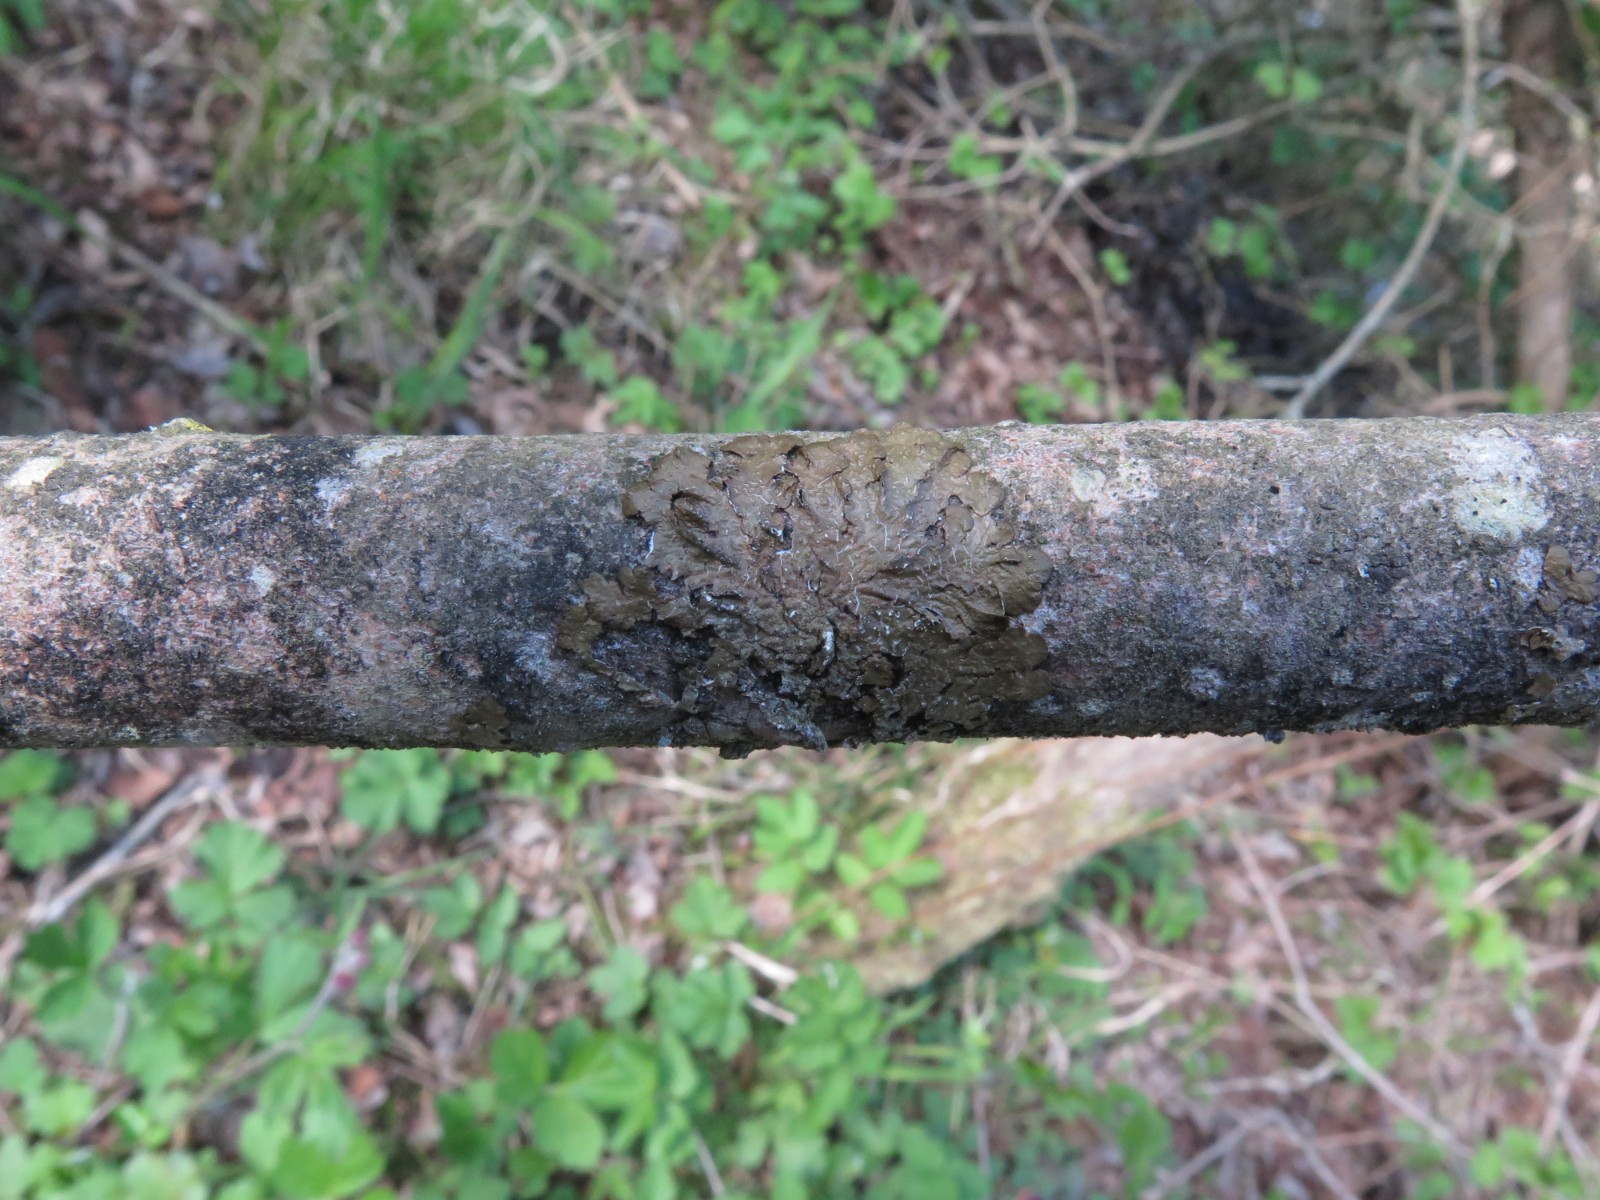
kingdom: Fungi
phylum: Ascomycota
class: Lecanoromycetes
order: Lecanorales
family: Parmeliaceae
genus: Melanelixia
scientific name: Melanelixia subaurifera
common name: guldpudret skållav
